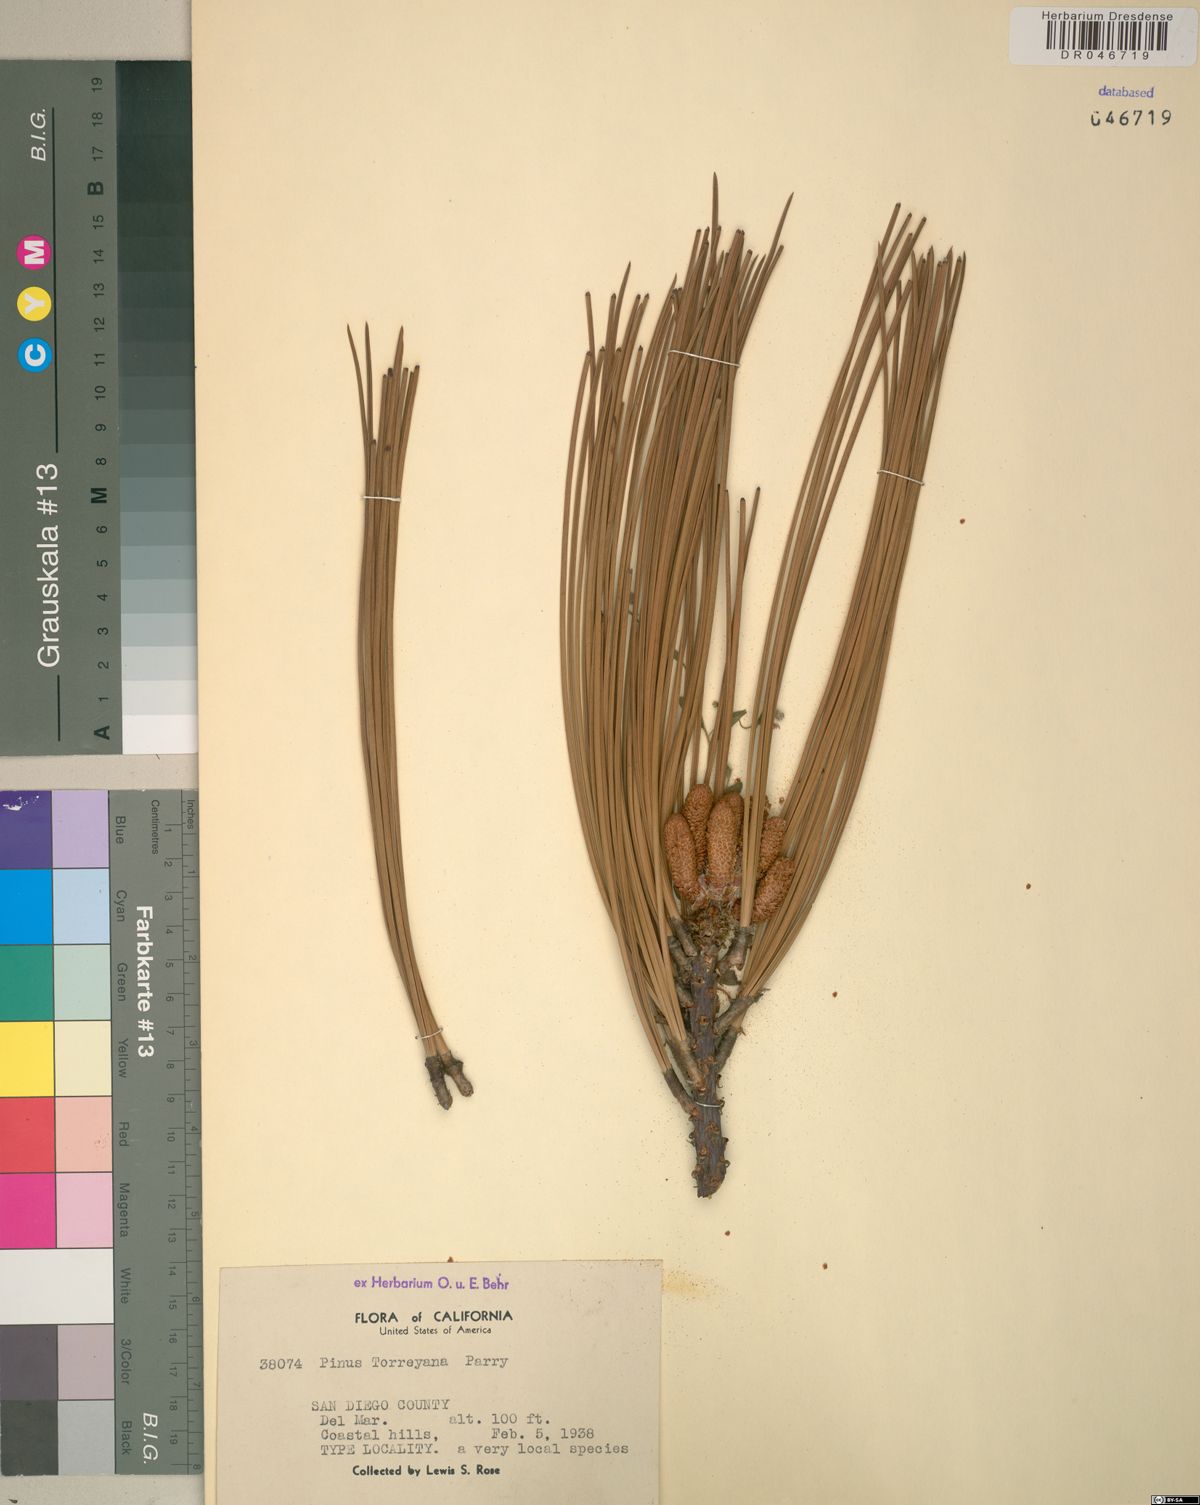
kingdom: Plantae
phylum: Tracheophyta
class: Pinopsida
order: Pinales
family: Pinaceae
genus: Pinus
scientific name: Pinus torreyana
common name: Torrey pine
